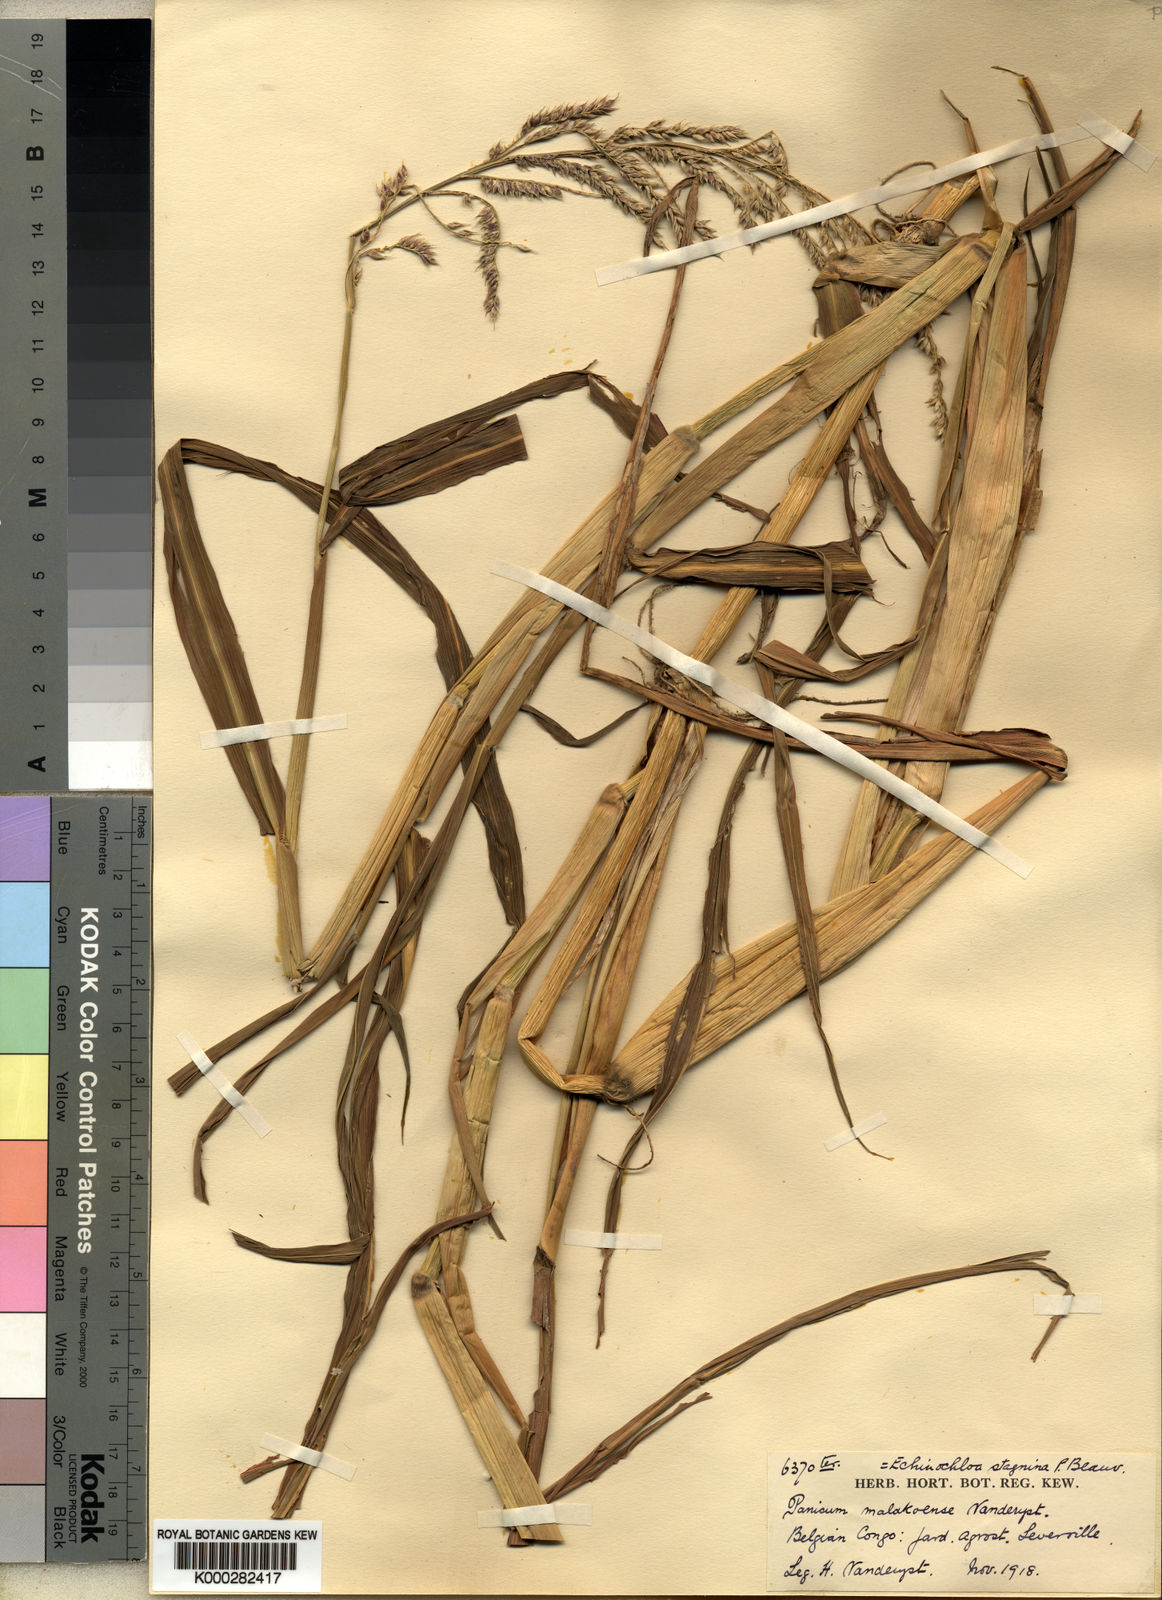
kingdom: Plantae
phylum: Tracheophyta
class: Liliopsida
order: Poales
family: Poaceae
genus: Panicum
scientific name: Panicum fauriei
